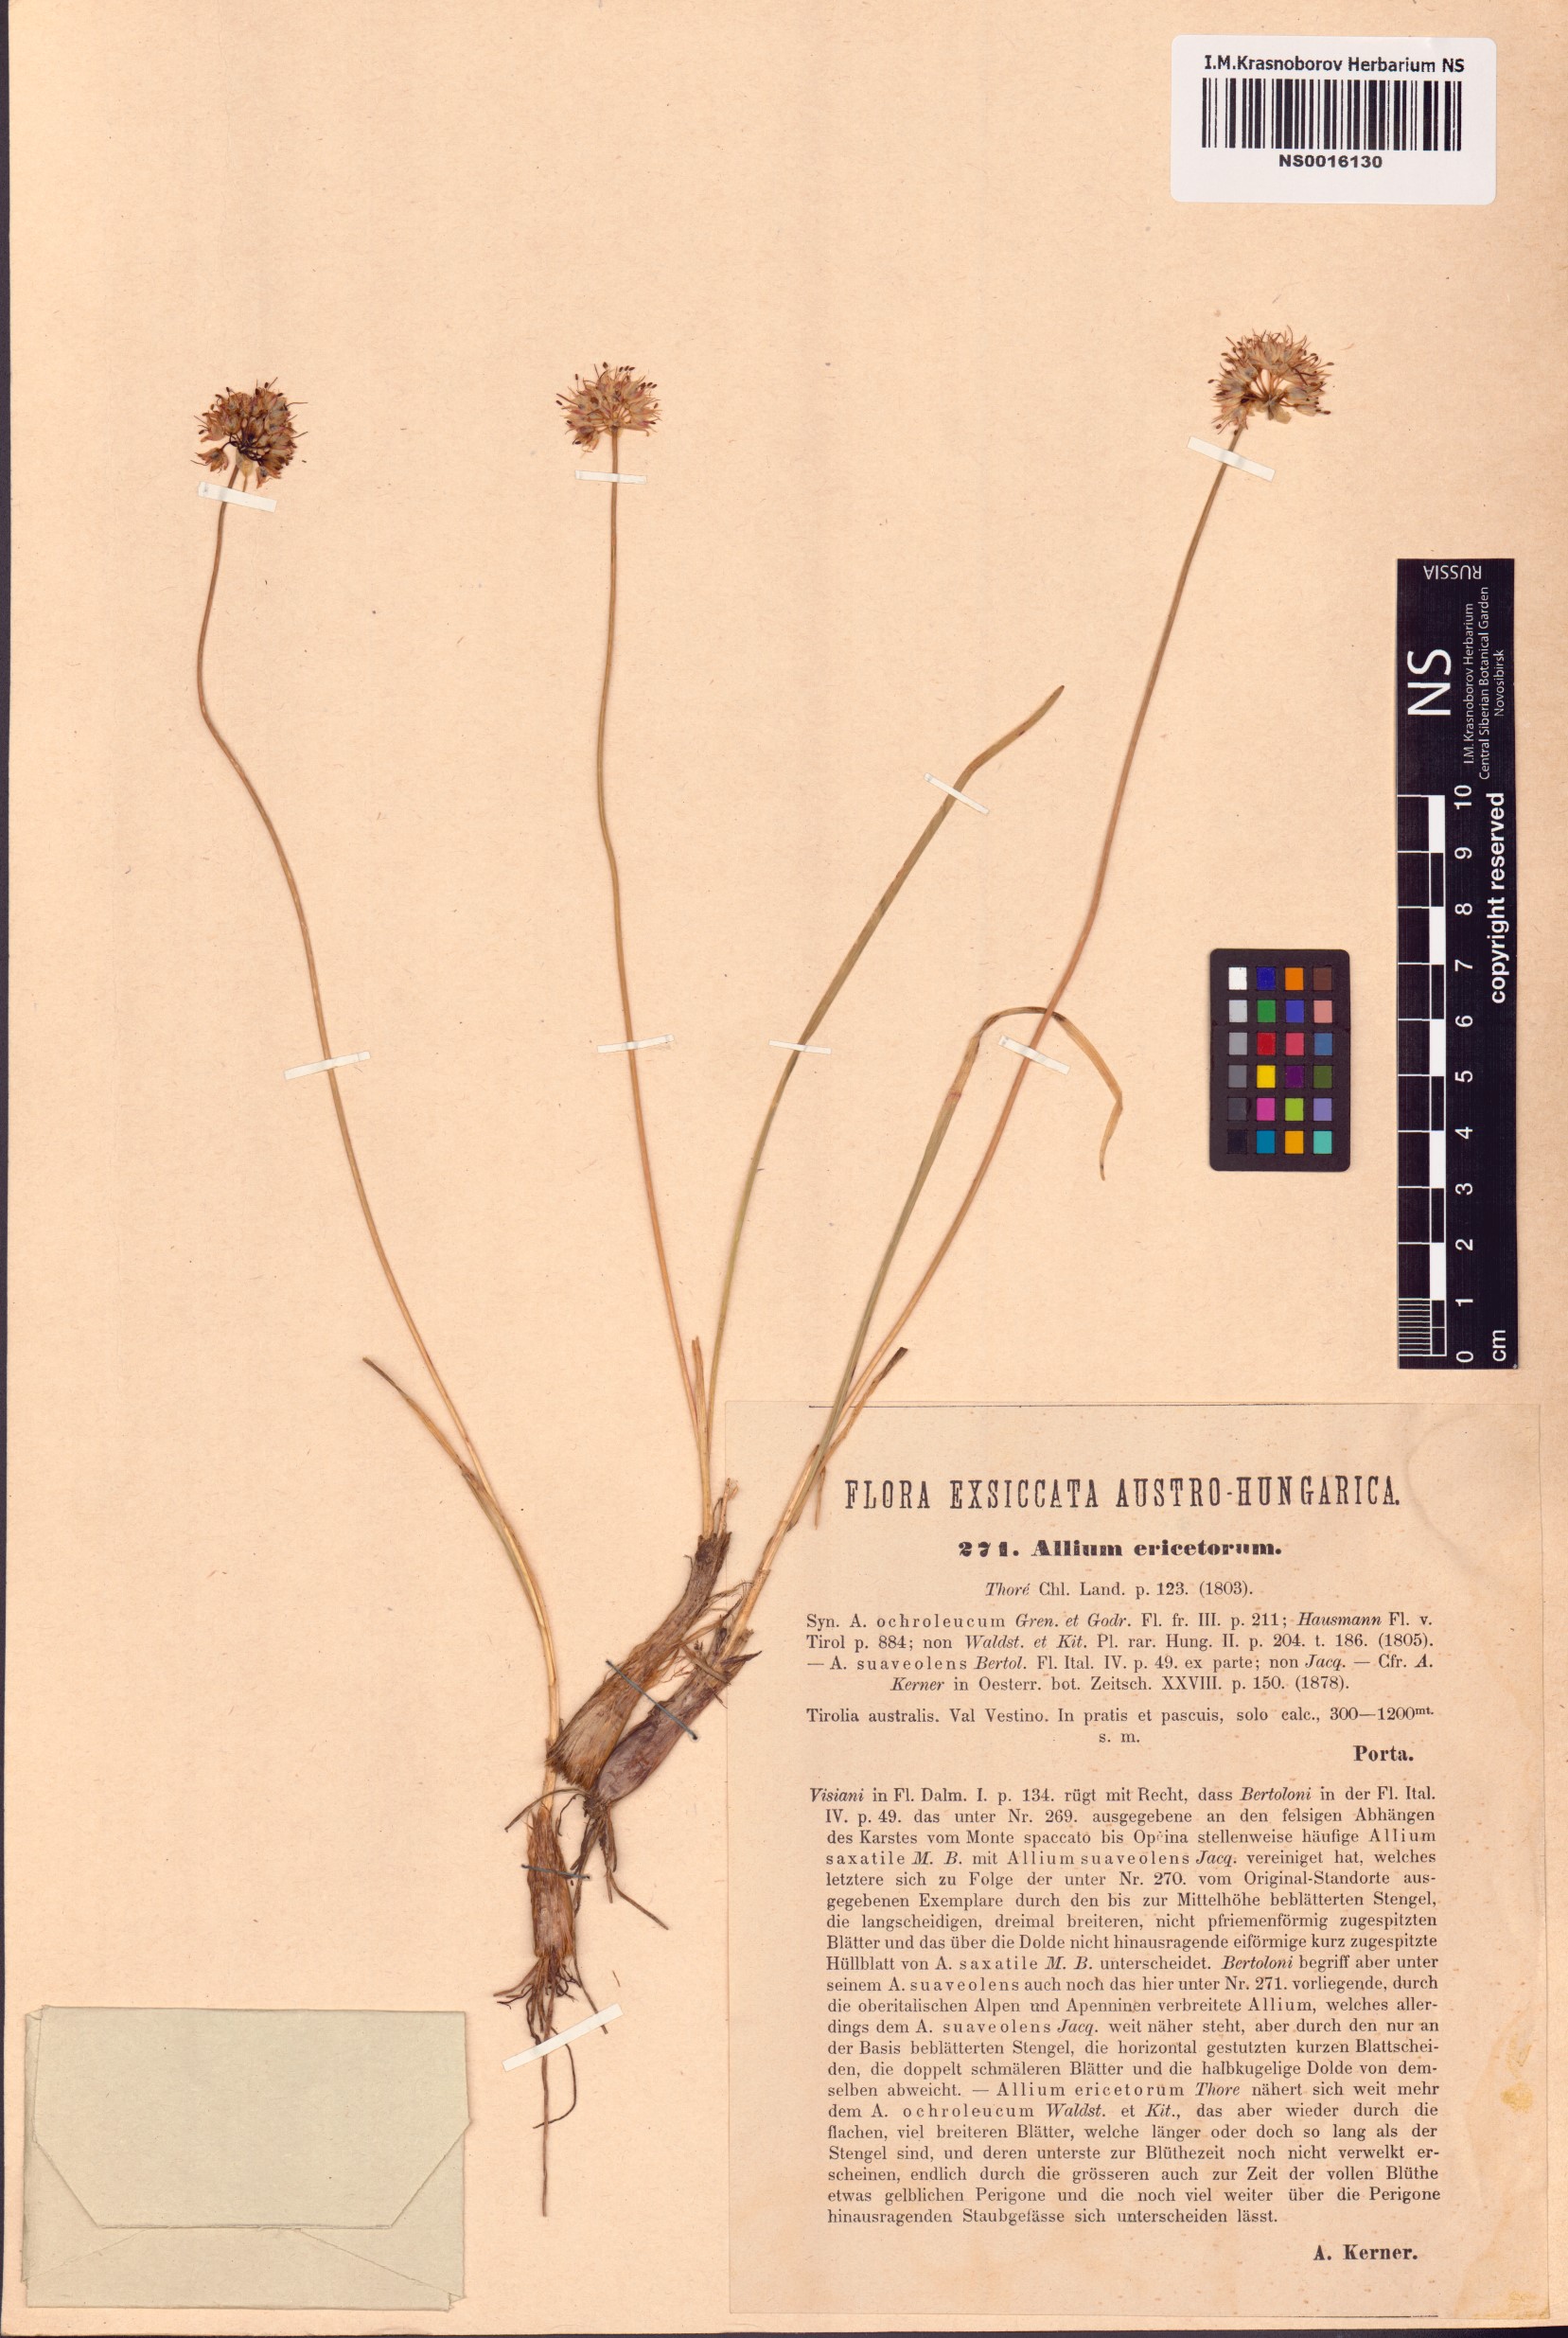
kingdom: Plantae
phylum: Tracheophyta
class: Liliopsida
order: Asparagales
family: Amaryllidaceae
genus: Allium
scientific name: Allium ericetorum
